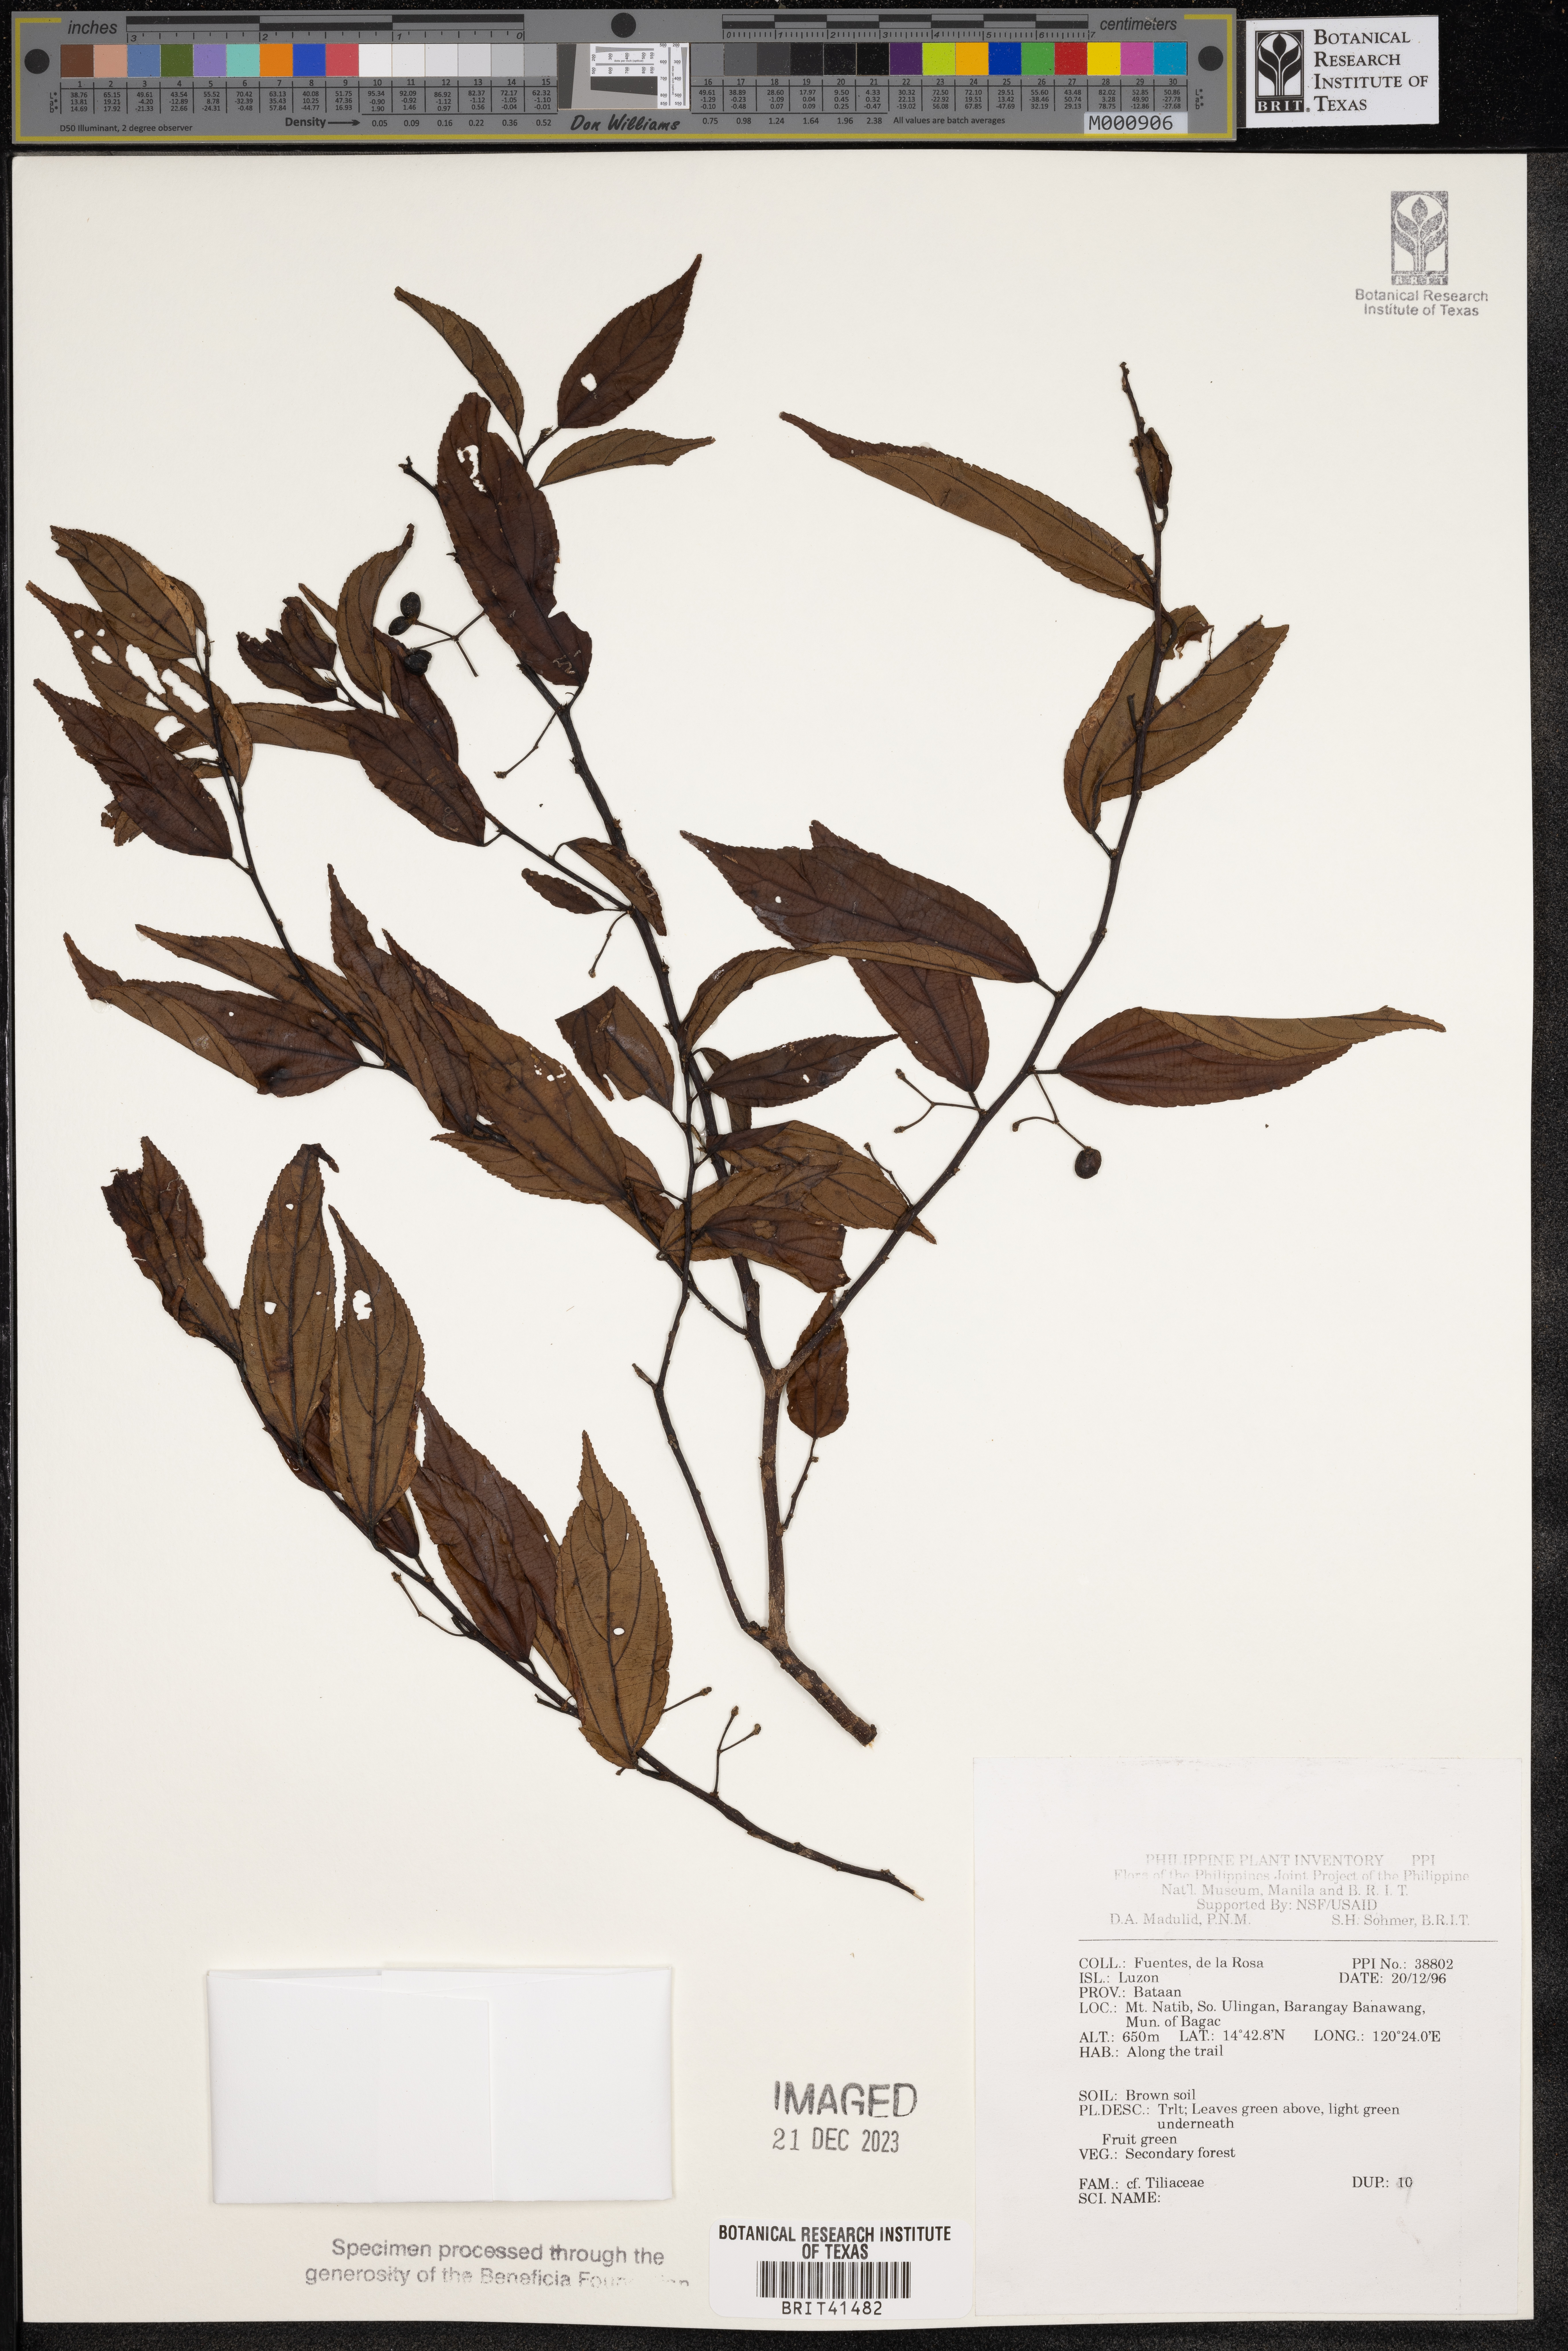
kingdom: Plantae
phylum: Tracheophyta
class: Magnoliopsida
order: Malvales
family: Tiliaceae
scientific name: Tiliaceae
